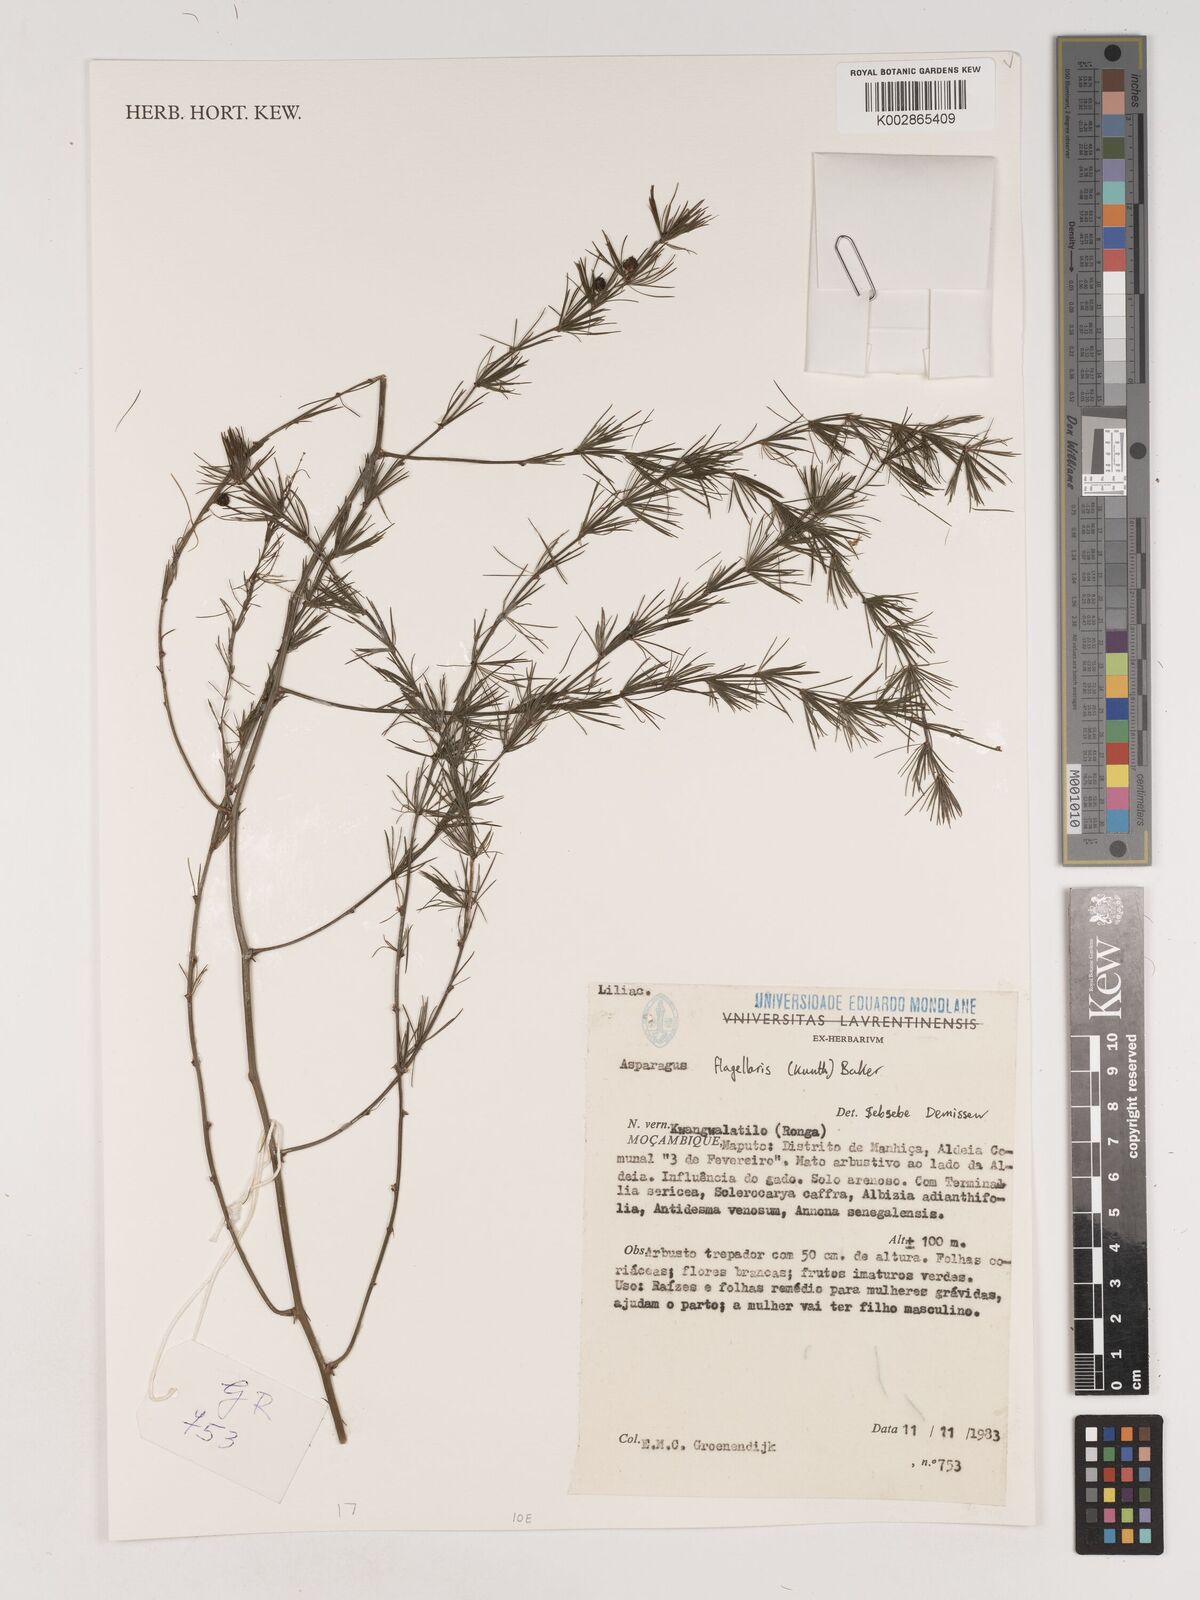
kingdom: Plantae
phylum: Tracheophyta
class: Liliopsida
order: Asparagales
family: Asparagaceae
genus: Asparagus
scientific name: Asparagus flagellaris
